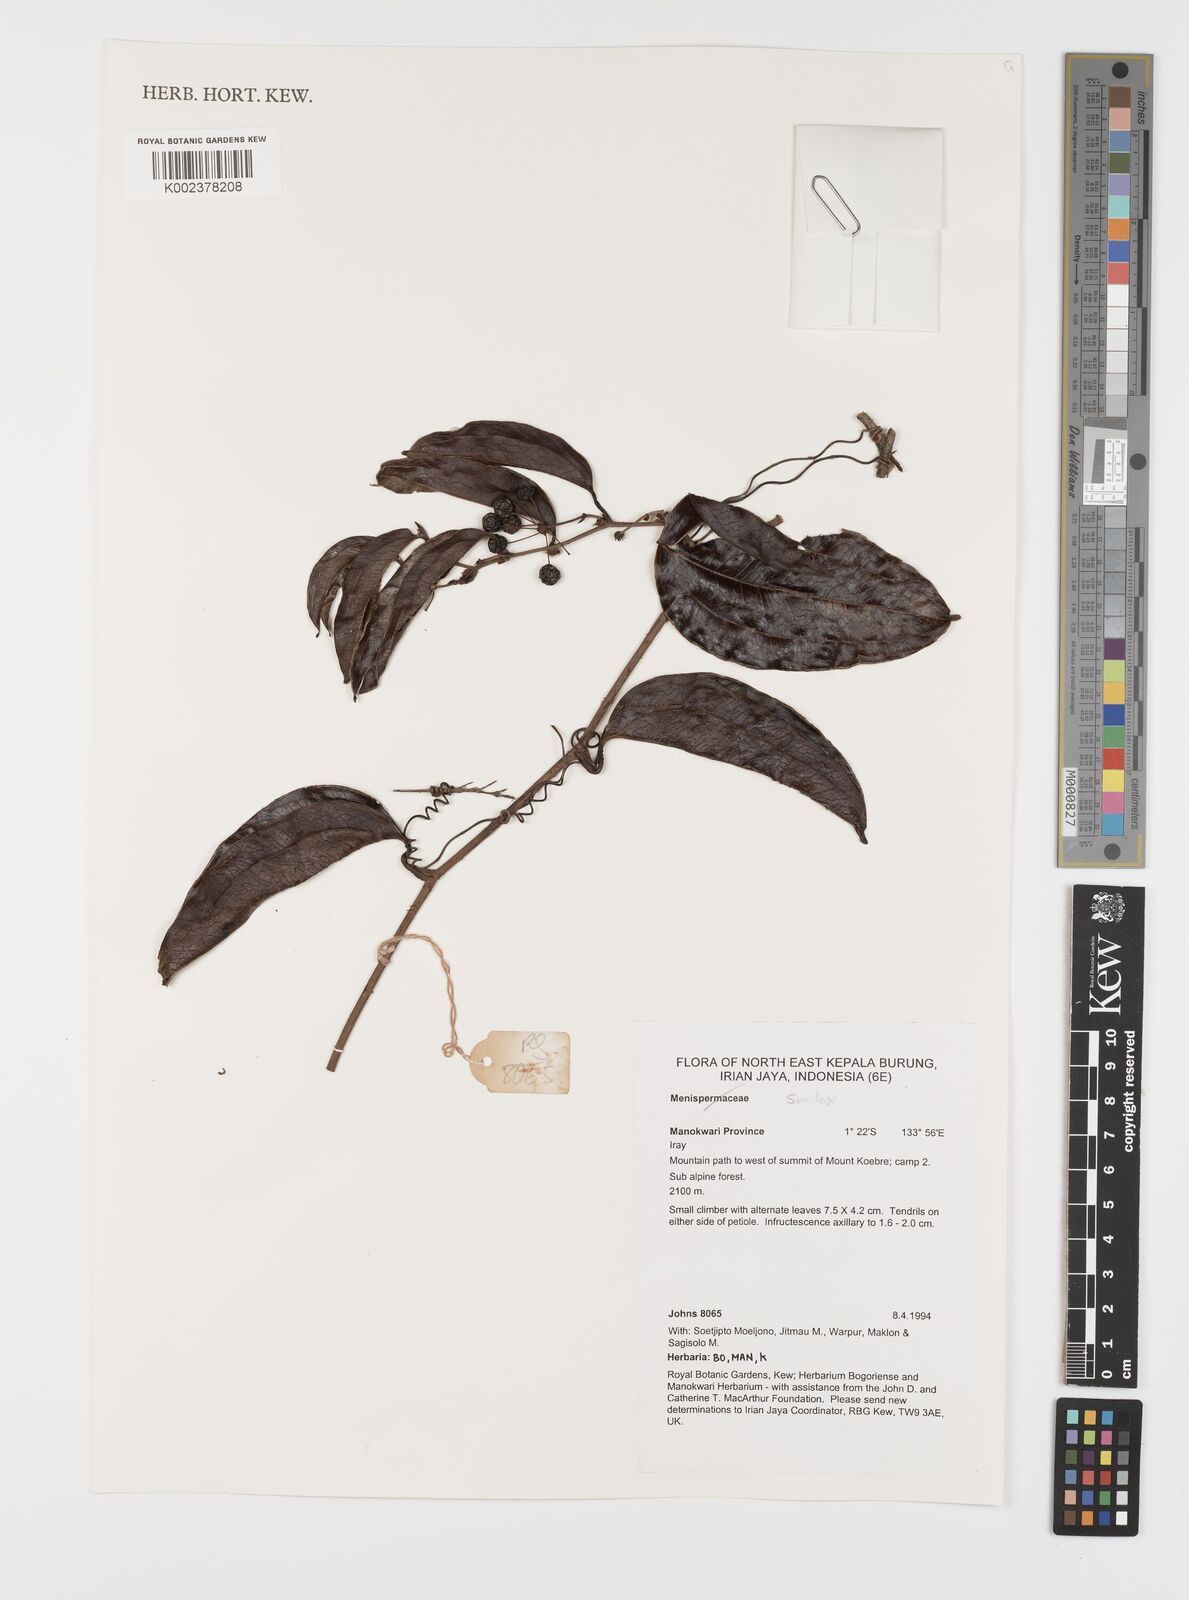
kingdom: Plantae
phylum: Tracheophyta
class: Liliopsida
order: Liliales
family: Smilacaceae
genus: Smilax
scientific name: Smilax
